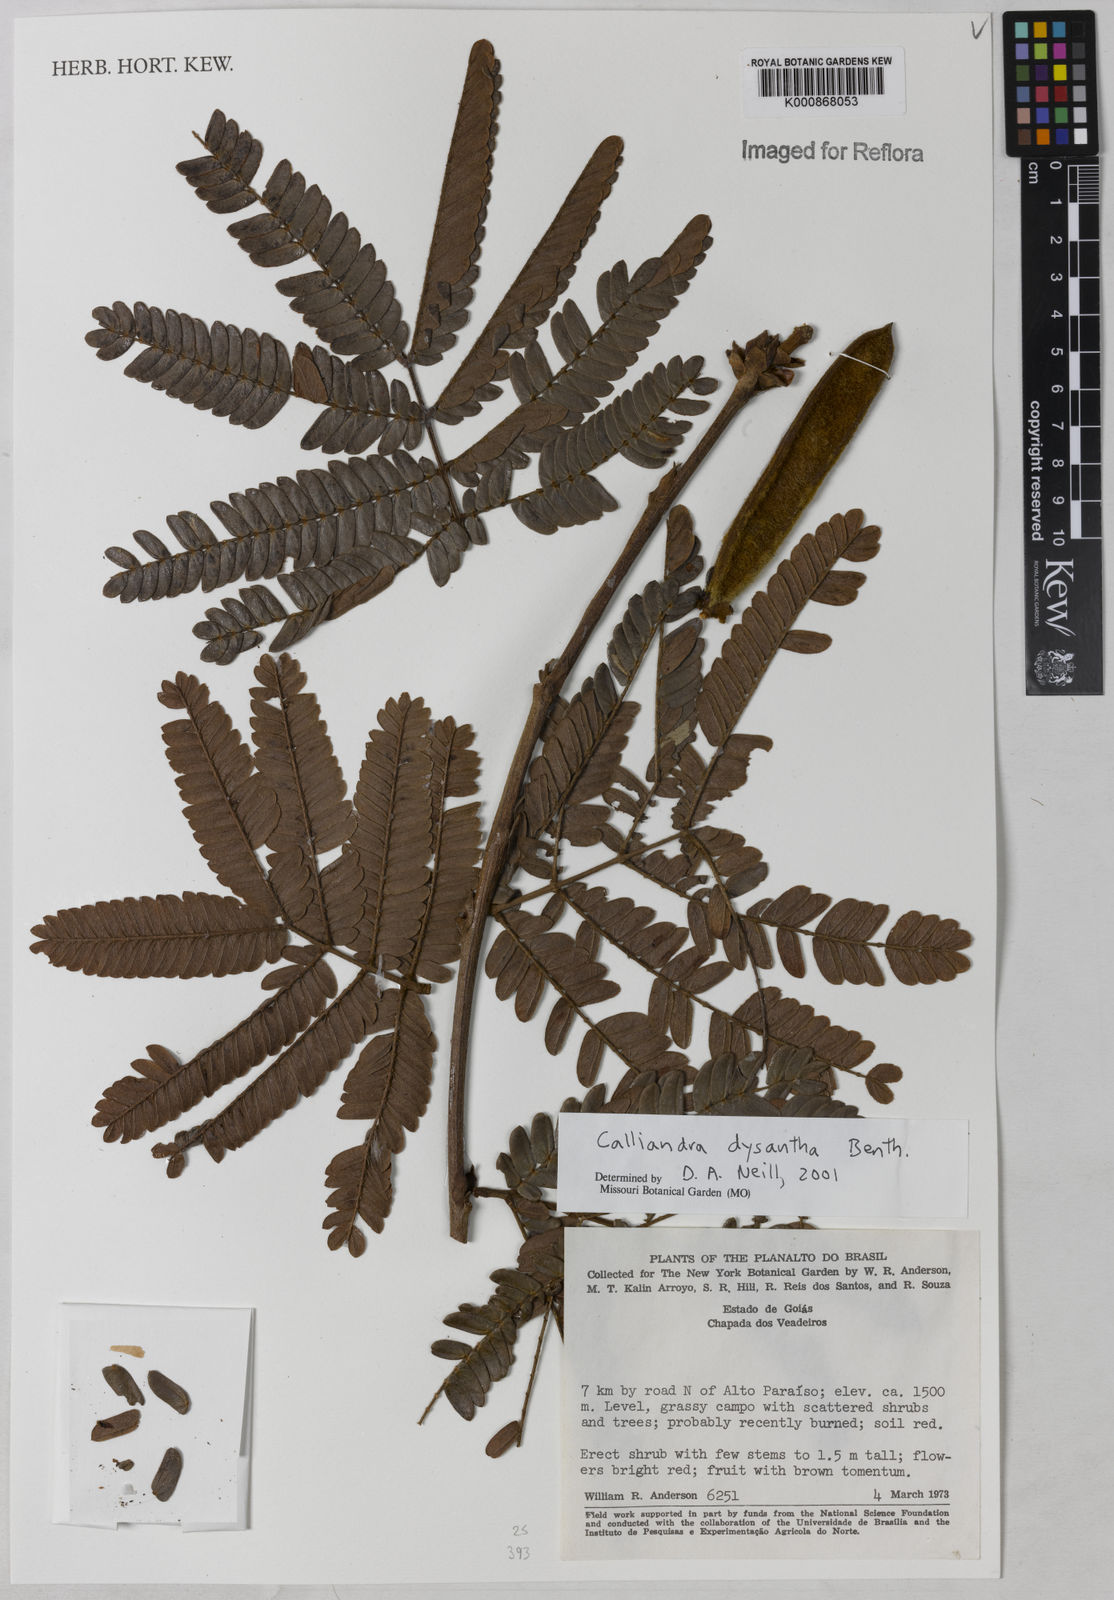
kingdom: Plantae
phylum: Tracheophyta
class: Magnoliopsida
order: Fabales
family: Fabaceae
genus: Calliandra
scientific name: Calliandra dysantha
